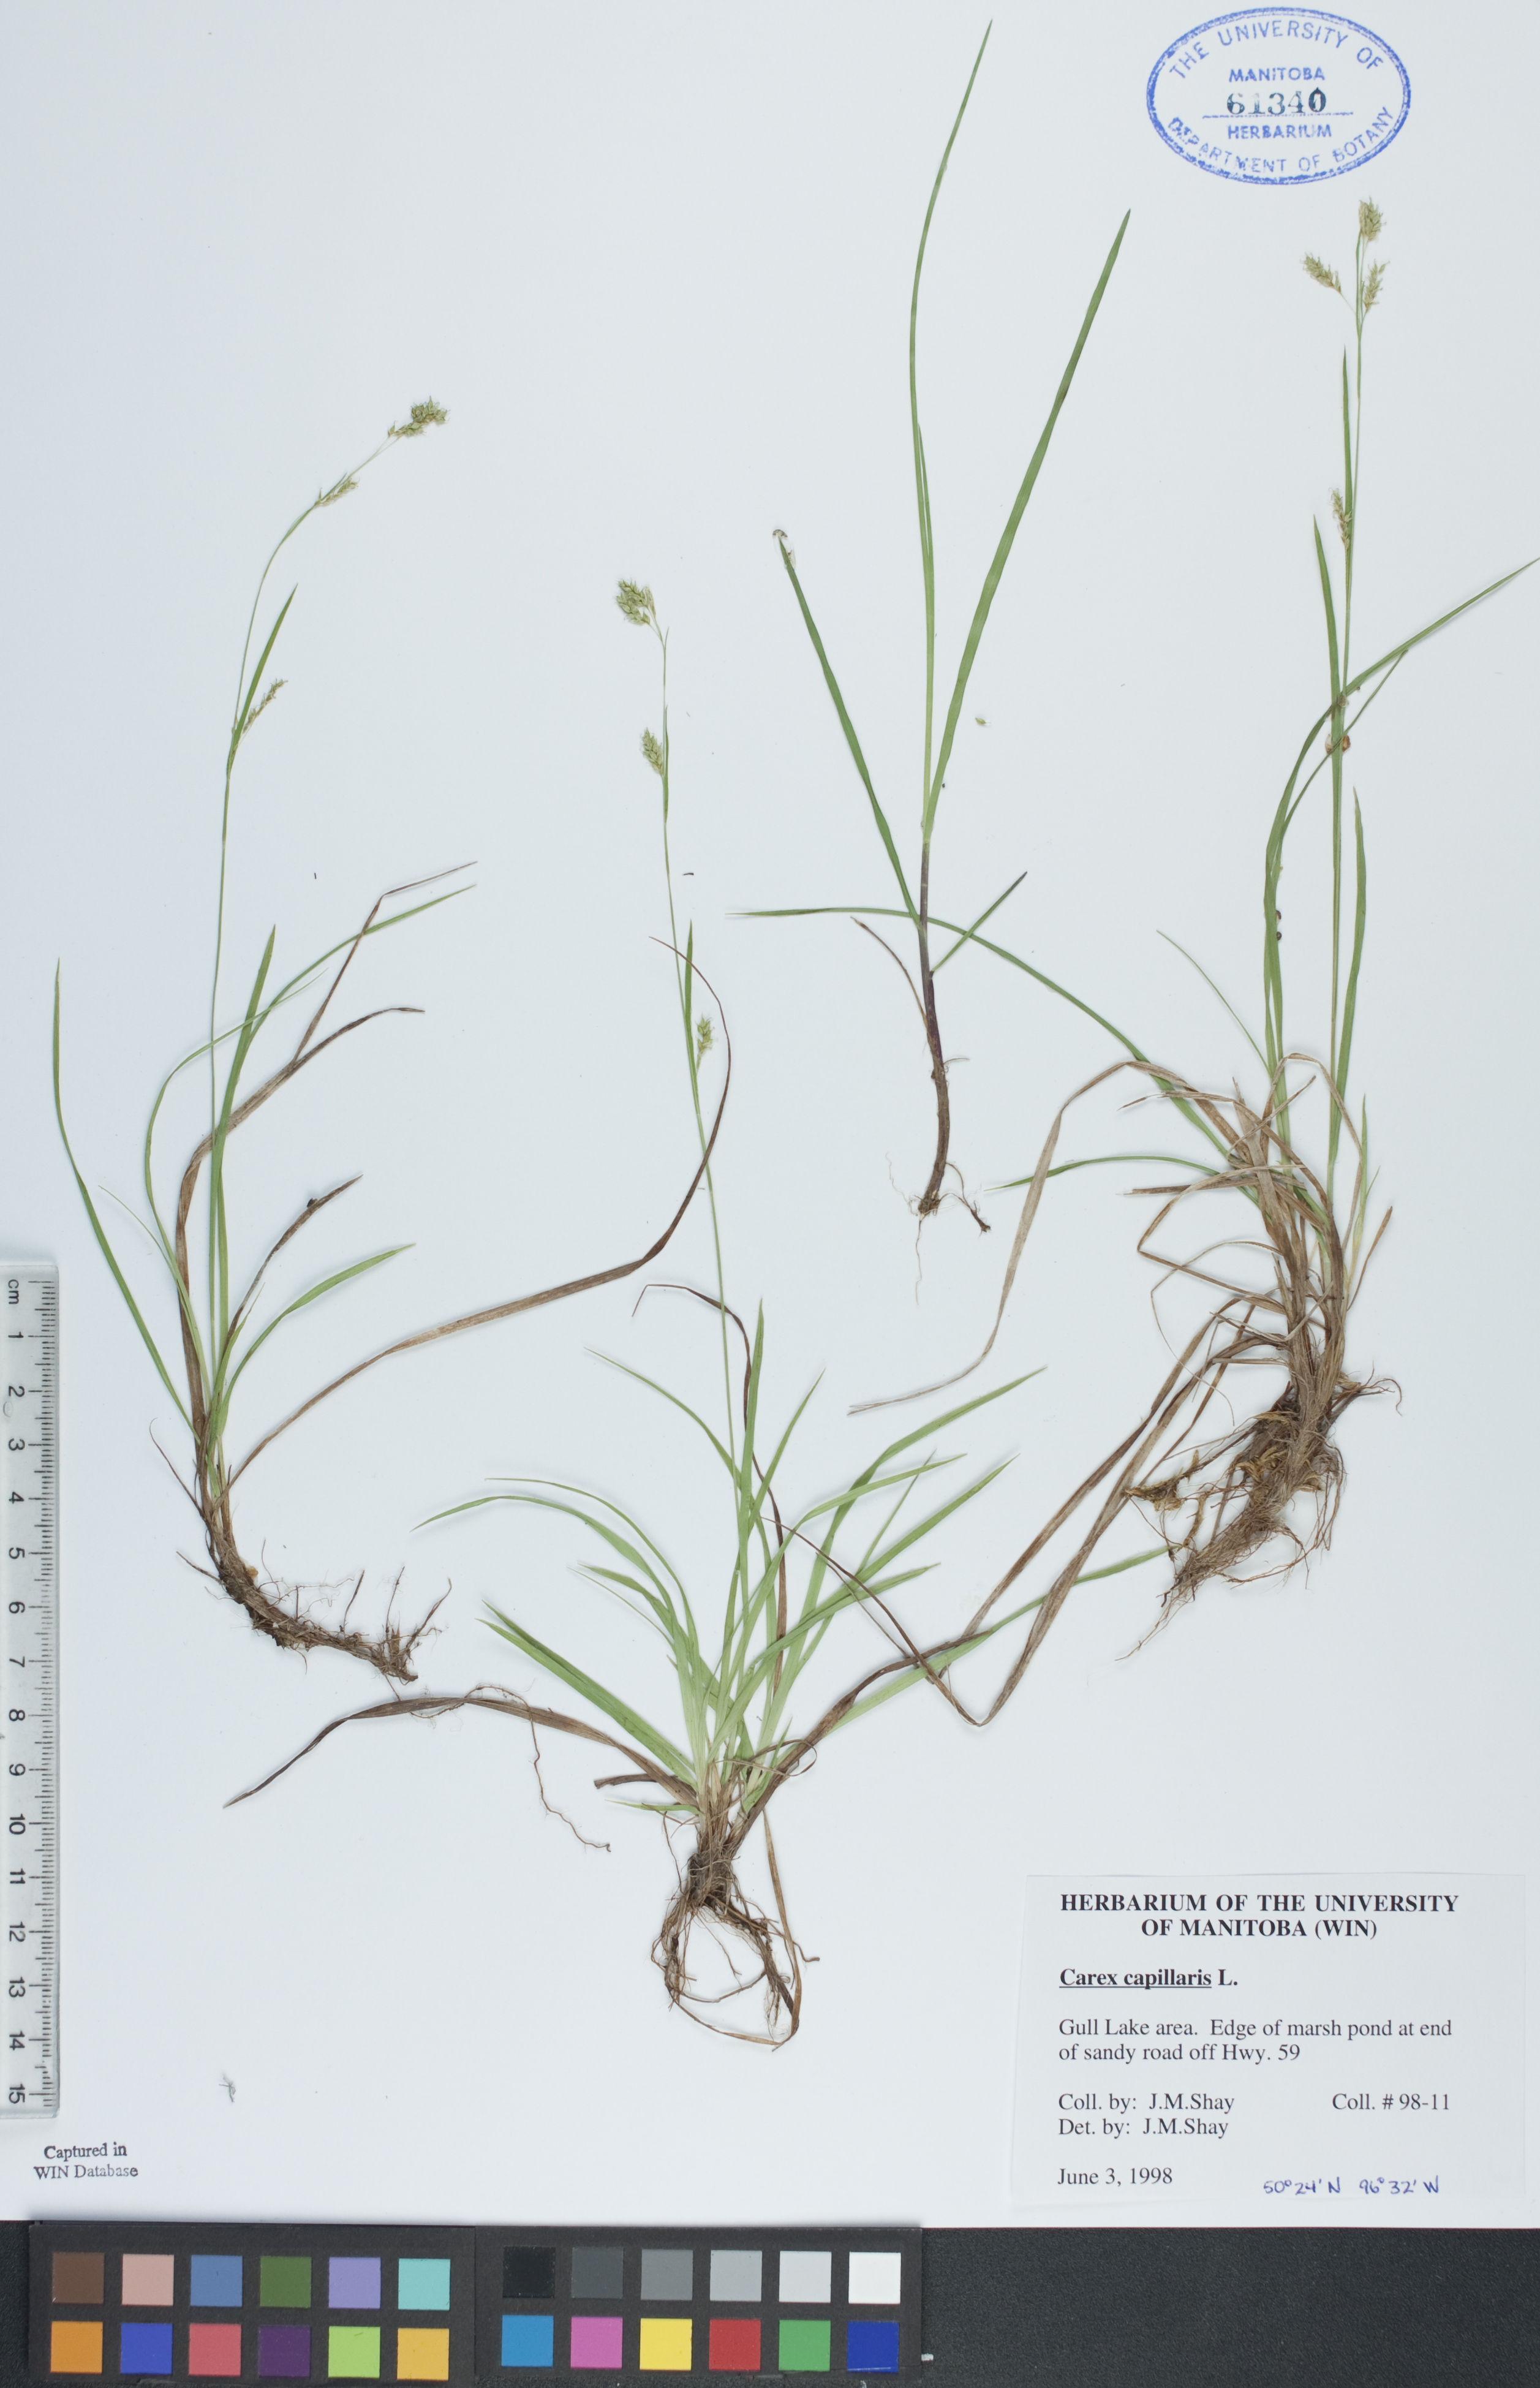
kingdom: Plantae
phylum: Tracheophyta
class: Liliopsida
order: Poales
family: Cyperaceae
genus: Carex
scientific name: Carex capillaris
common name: Hair sedge
